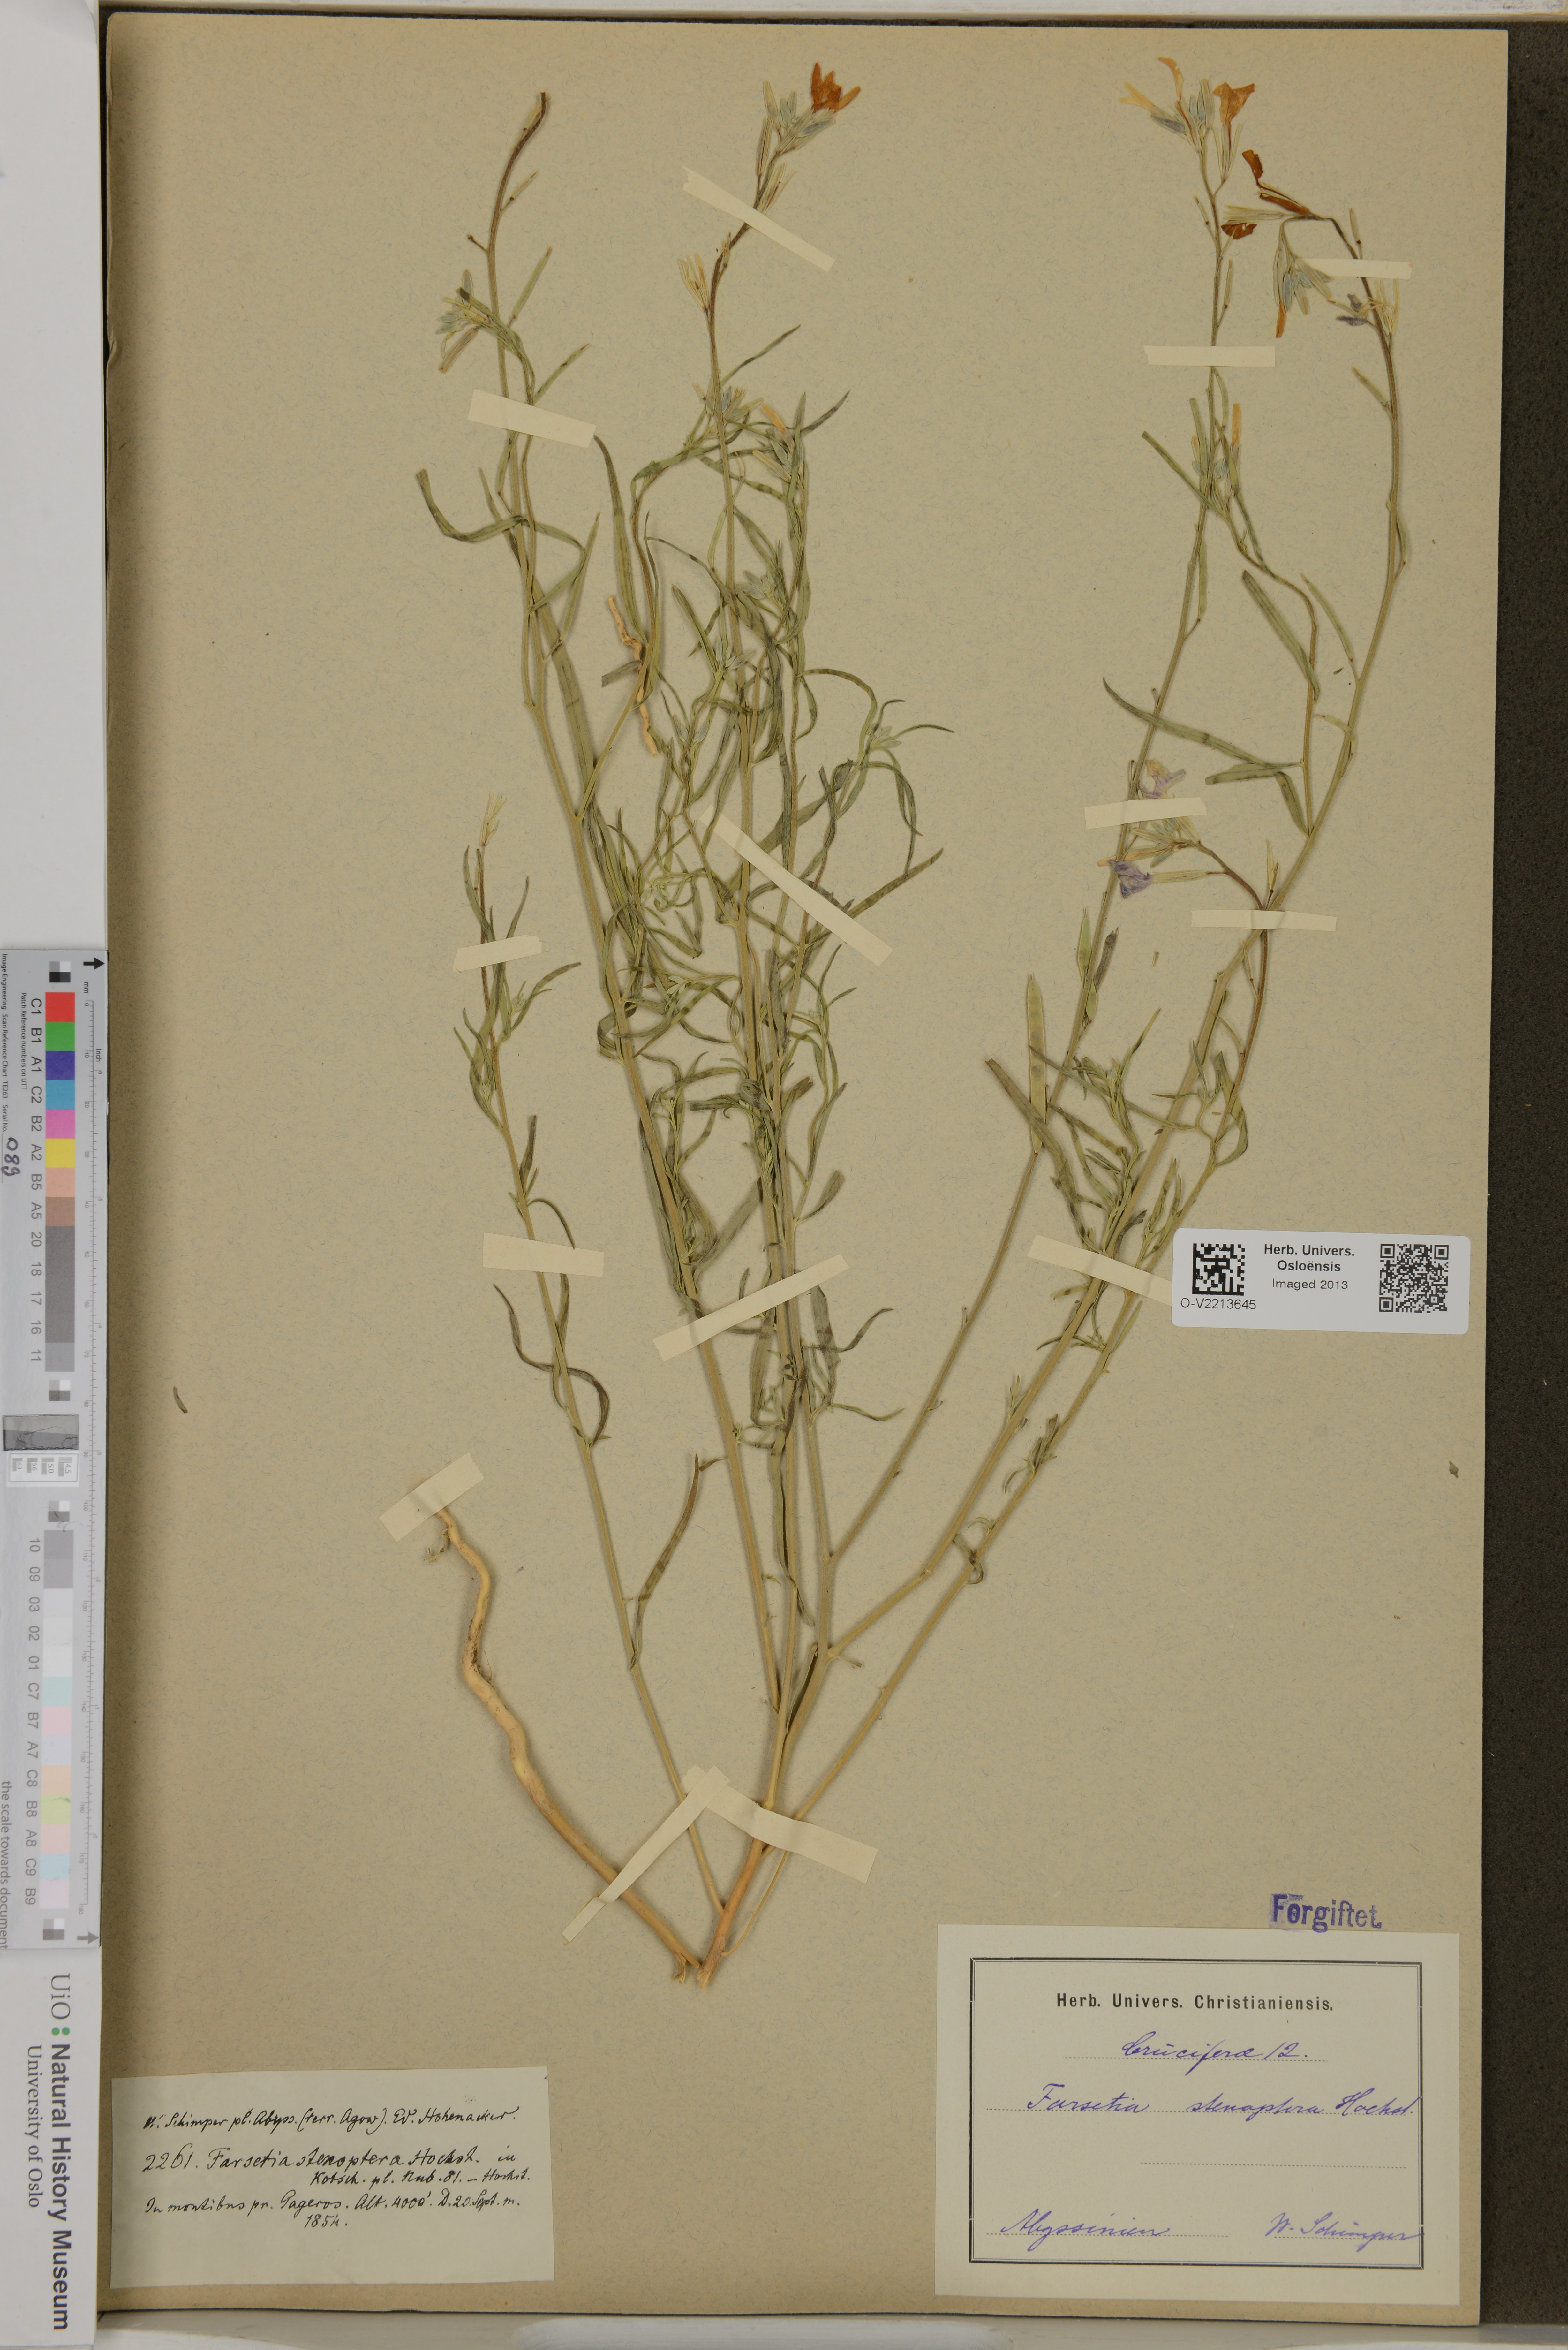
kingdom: Plantae
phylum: Tracheophyta
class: Magnoliopsida
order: Brassicales
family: Brassicaceae
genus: Farsetia
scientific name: Farsetia stenoptera
